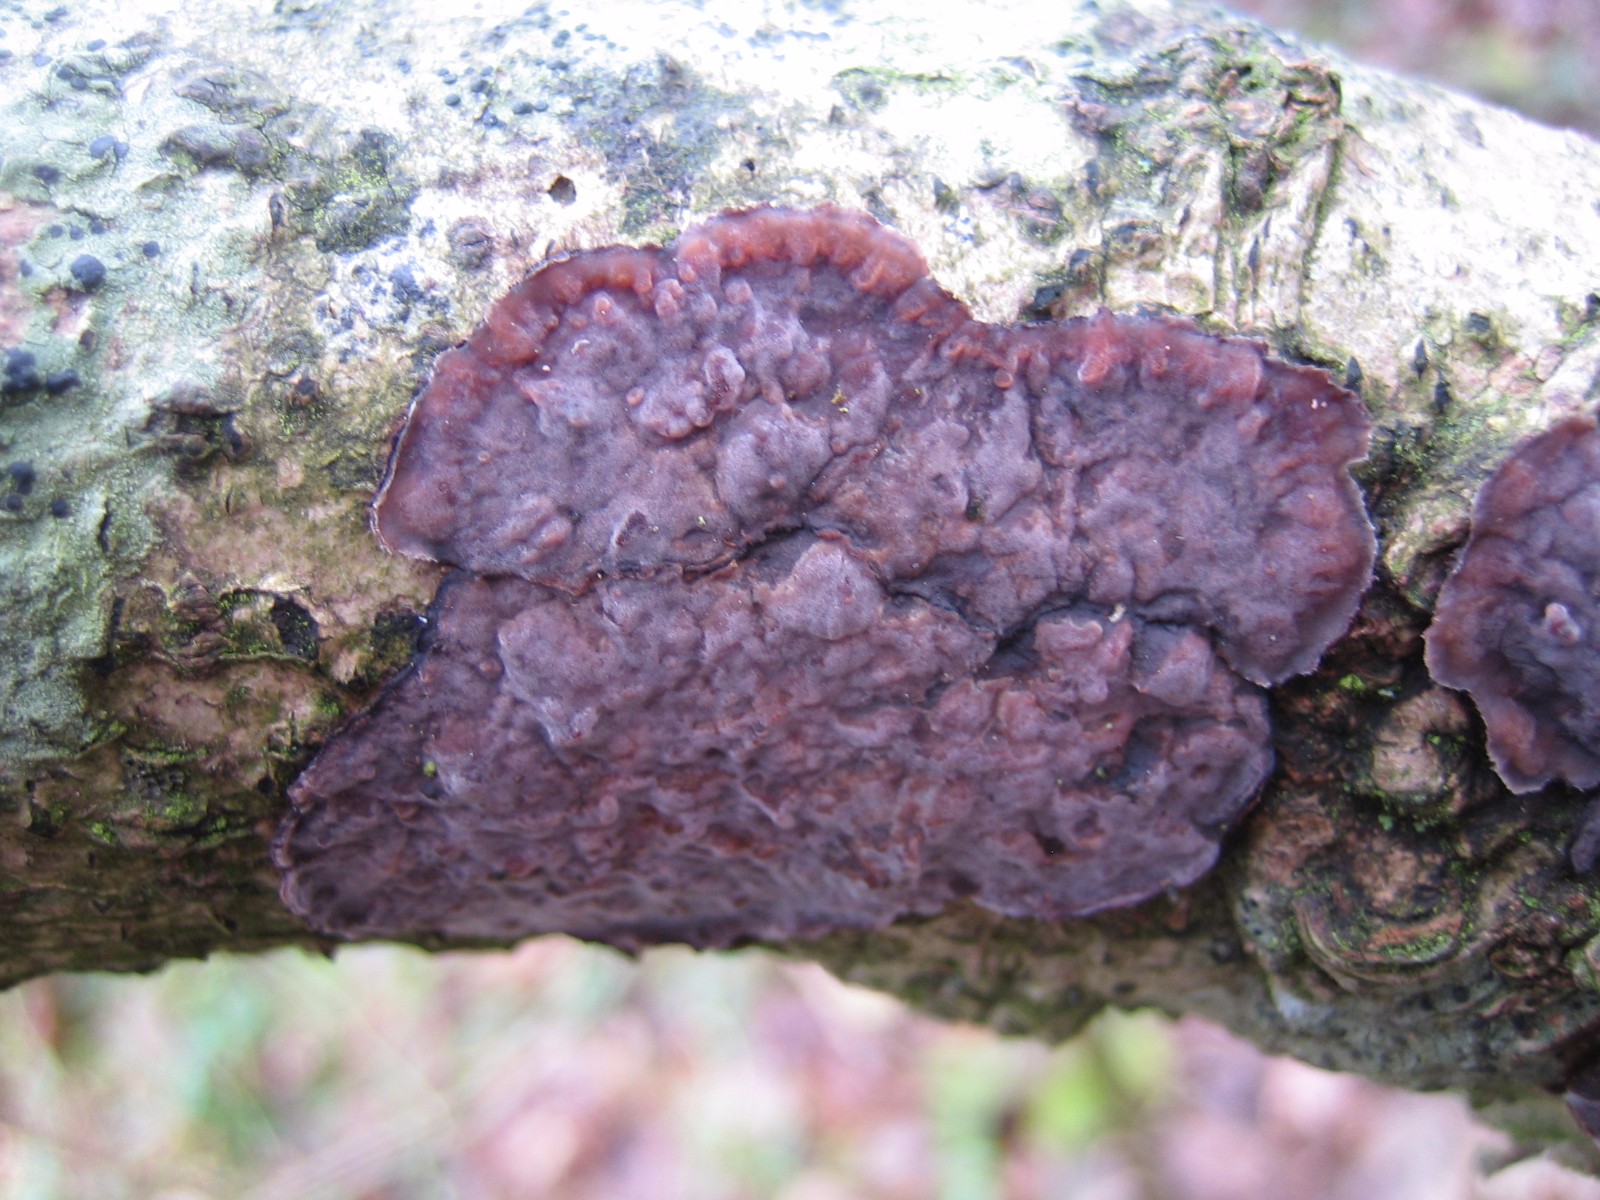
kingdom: Fungi
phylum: Basidiomycota
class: Agaricomycetes
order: Russulales
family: Peniophoraceae
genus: Peniophora
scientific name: Peniophora quercina
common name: ege-voksskind
